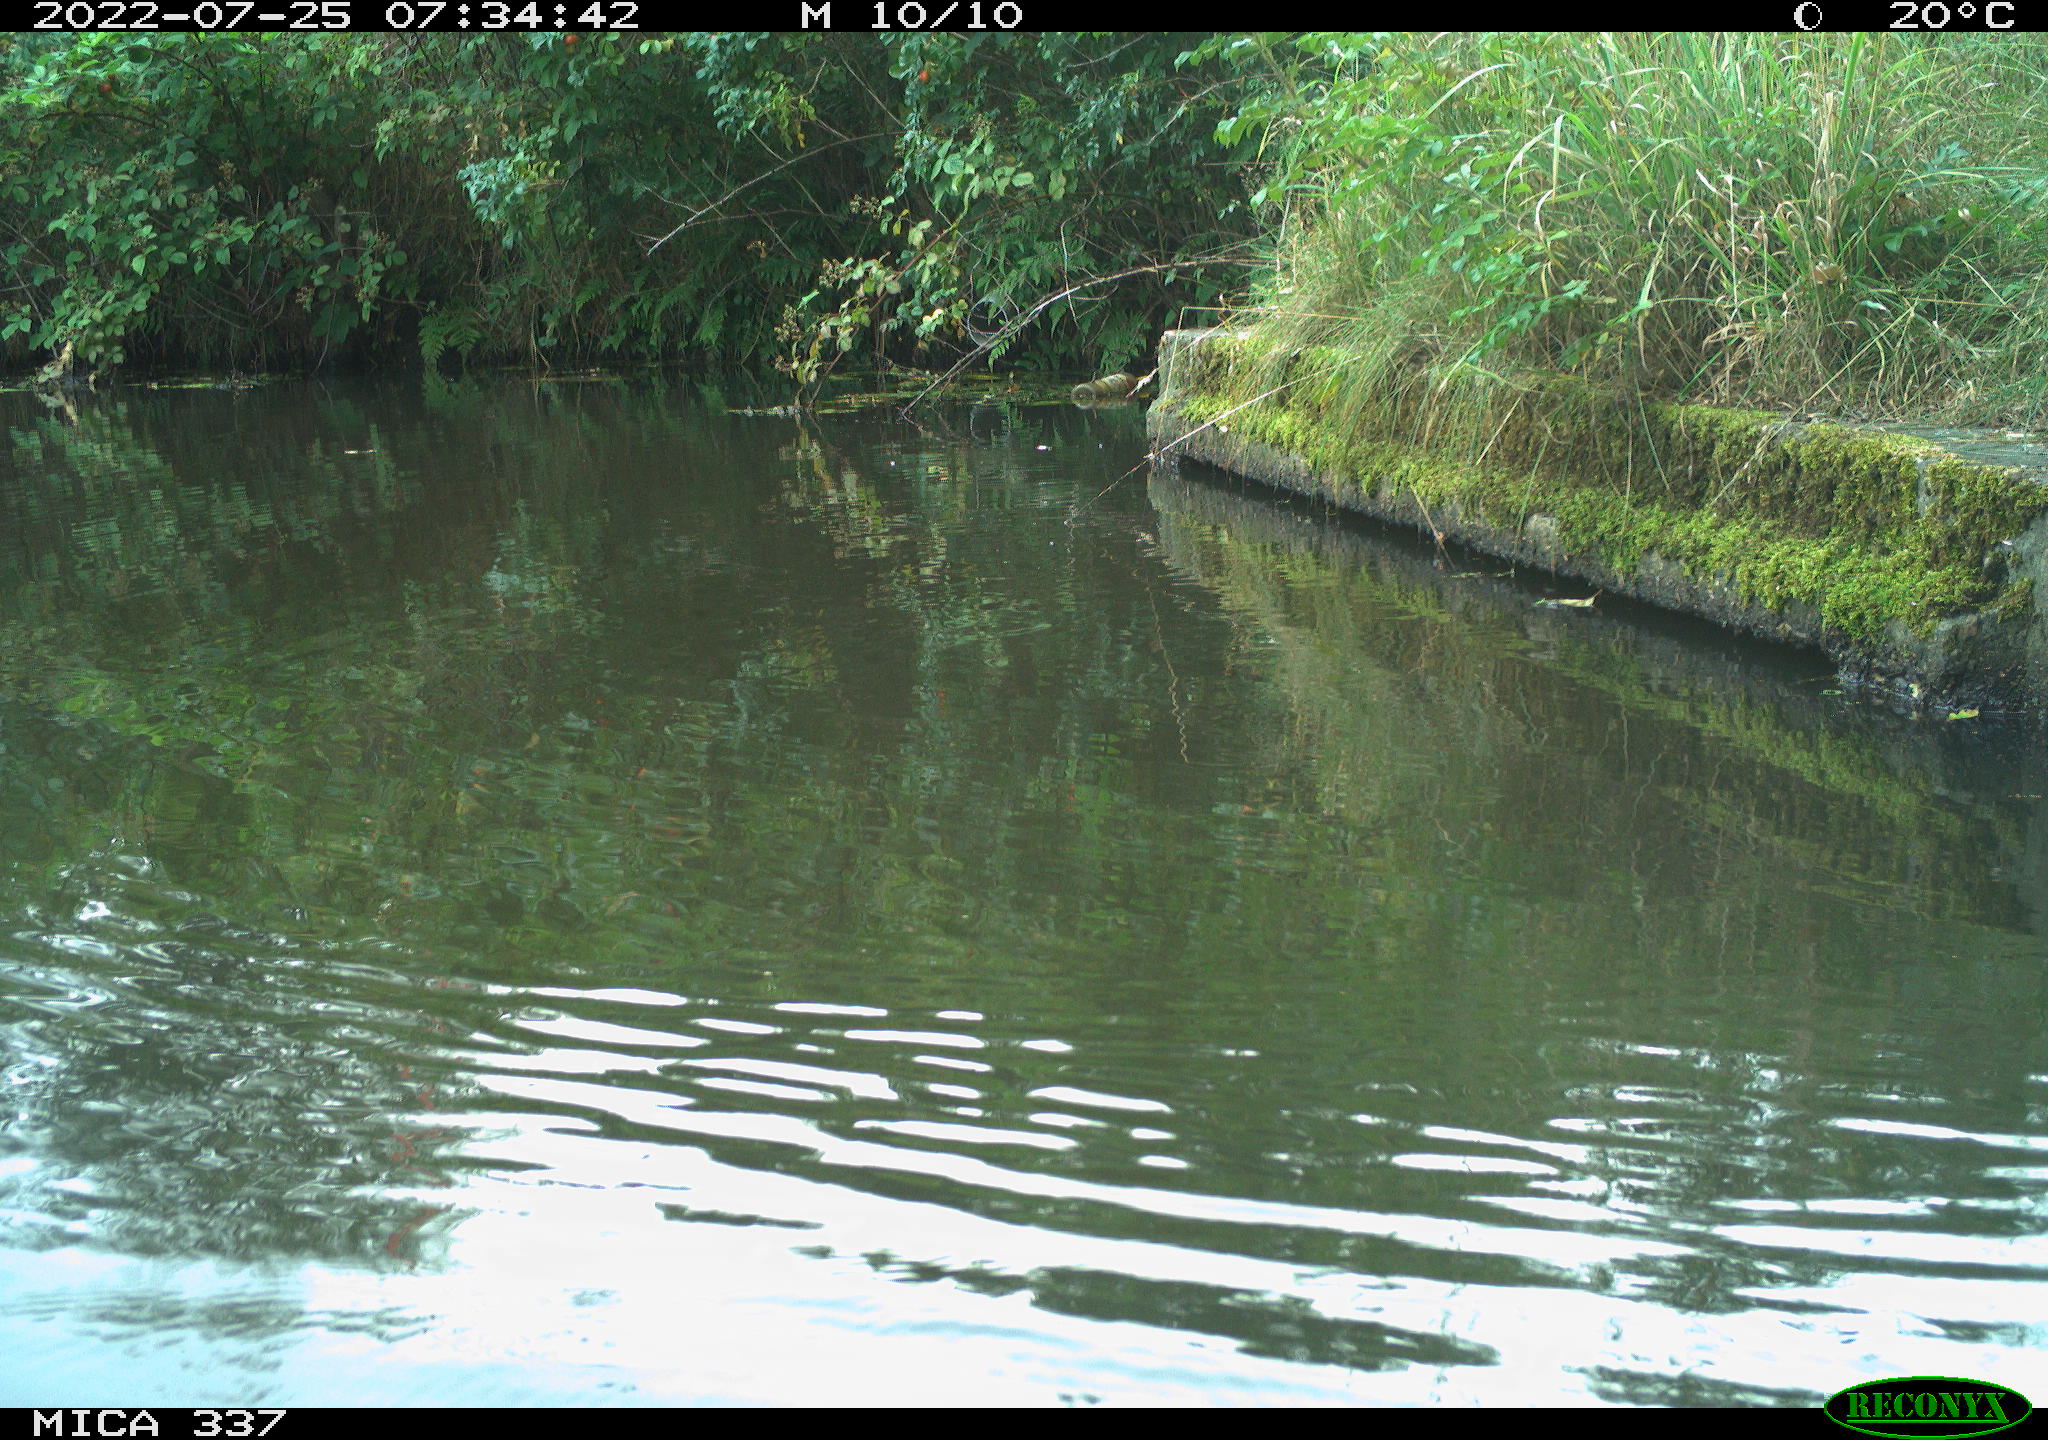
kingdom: Animalia
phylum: Chordata
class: Aves
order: Gruiformes
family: Rallidae
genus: Gallinula
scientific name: Gallinula chloropus
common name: Common moorhen
